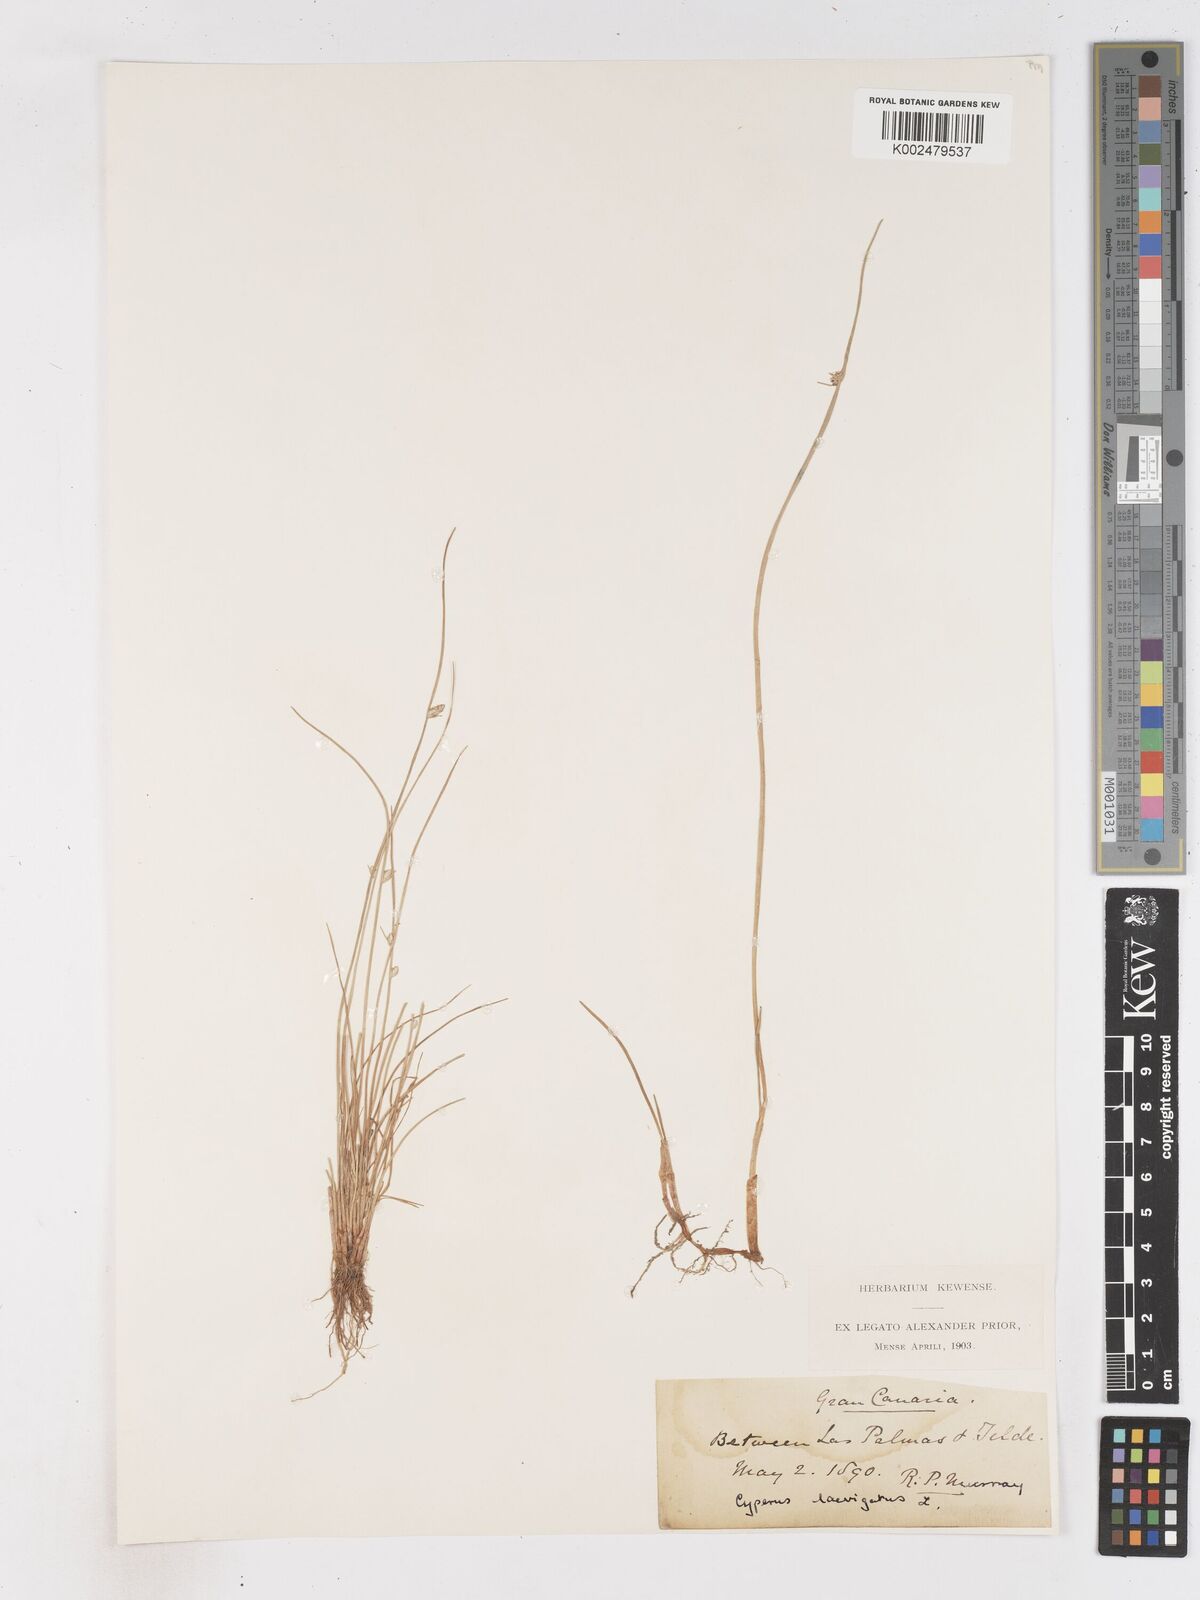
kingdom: Plantae
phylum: Tracheophyta
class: Liliopsida
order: Poales
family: Cyperaceae
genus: Cyperus
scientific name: Cyperus laevigatus
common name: Smooth flat sedge
